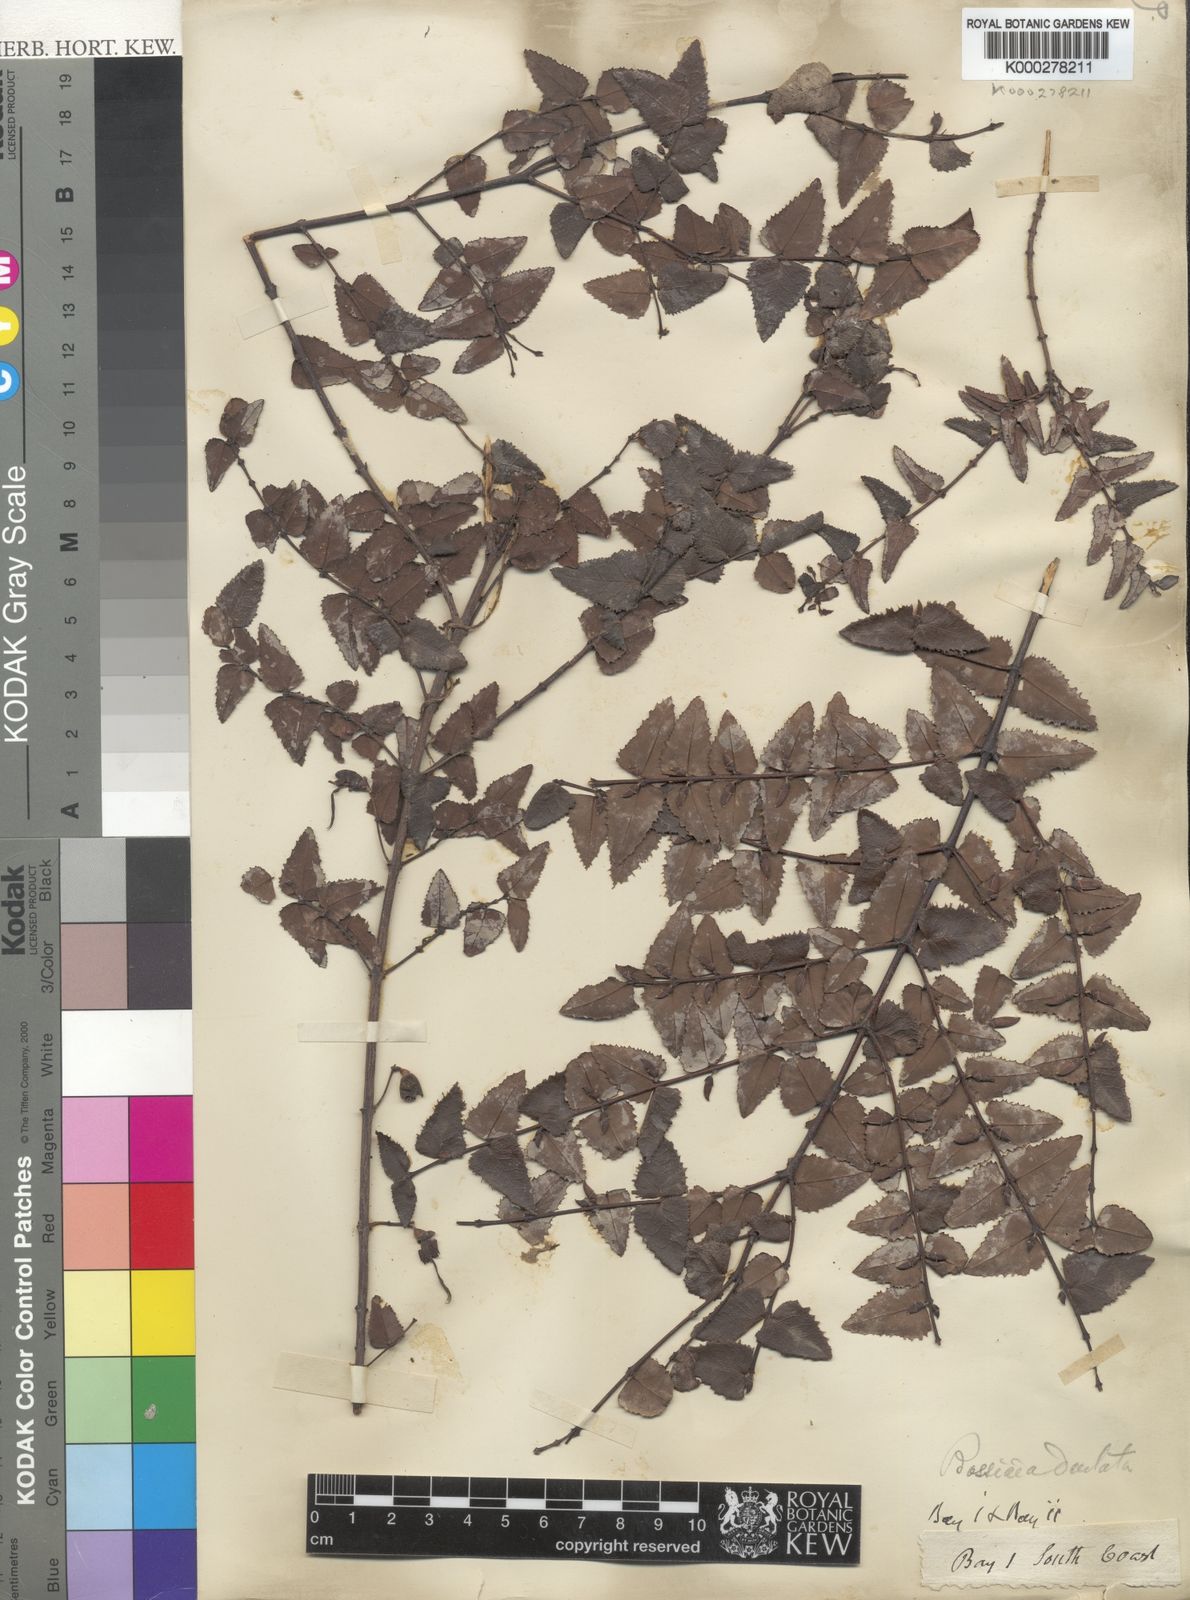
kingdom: Plantae
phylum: Tracheophyta
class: Magnoliopsida
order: Fabales
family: Fabaceae
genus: Bossiaea
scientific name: Bossiaea dentata
